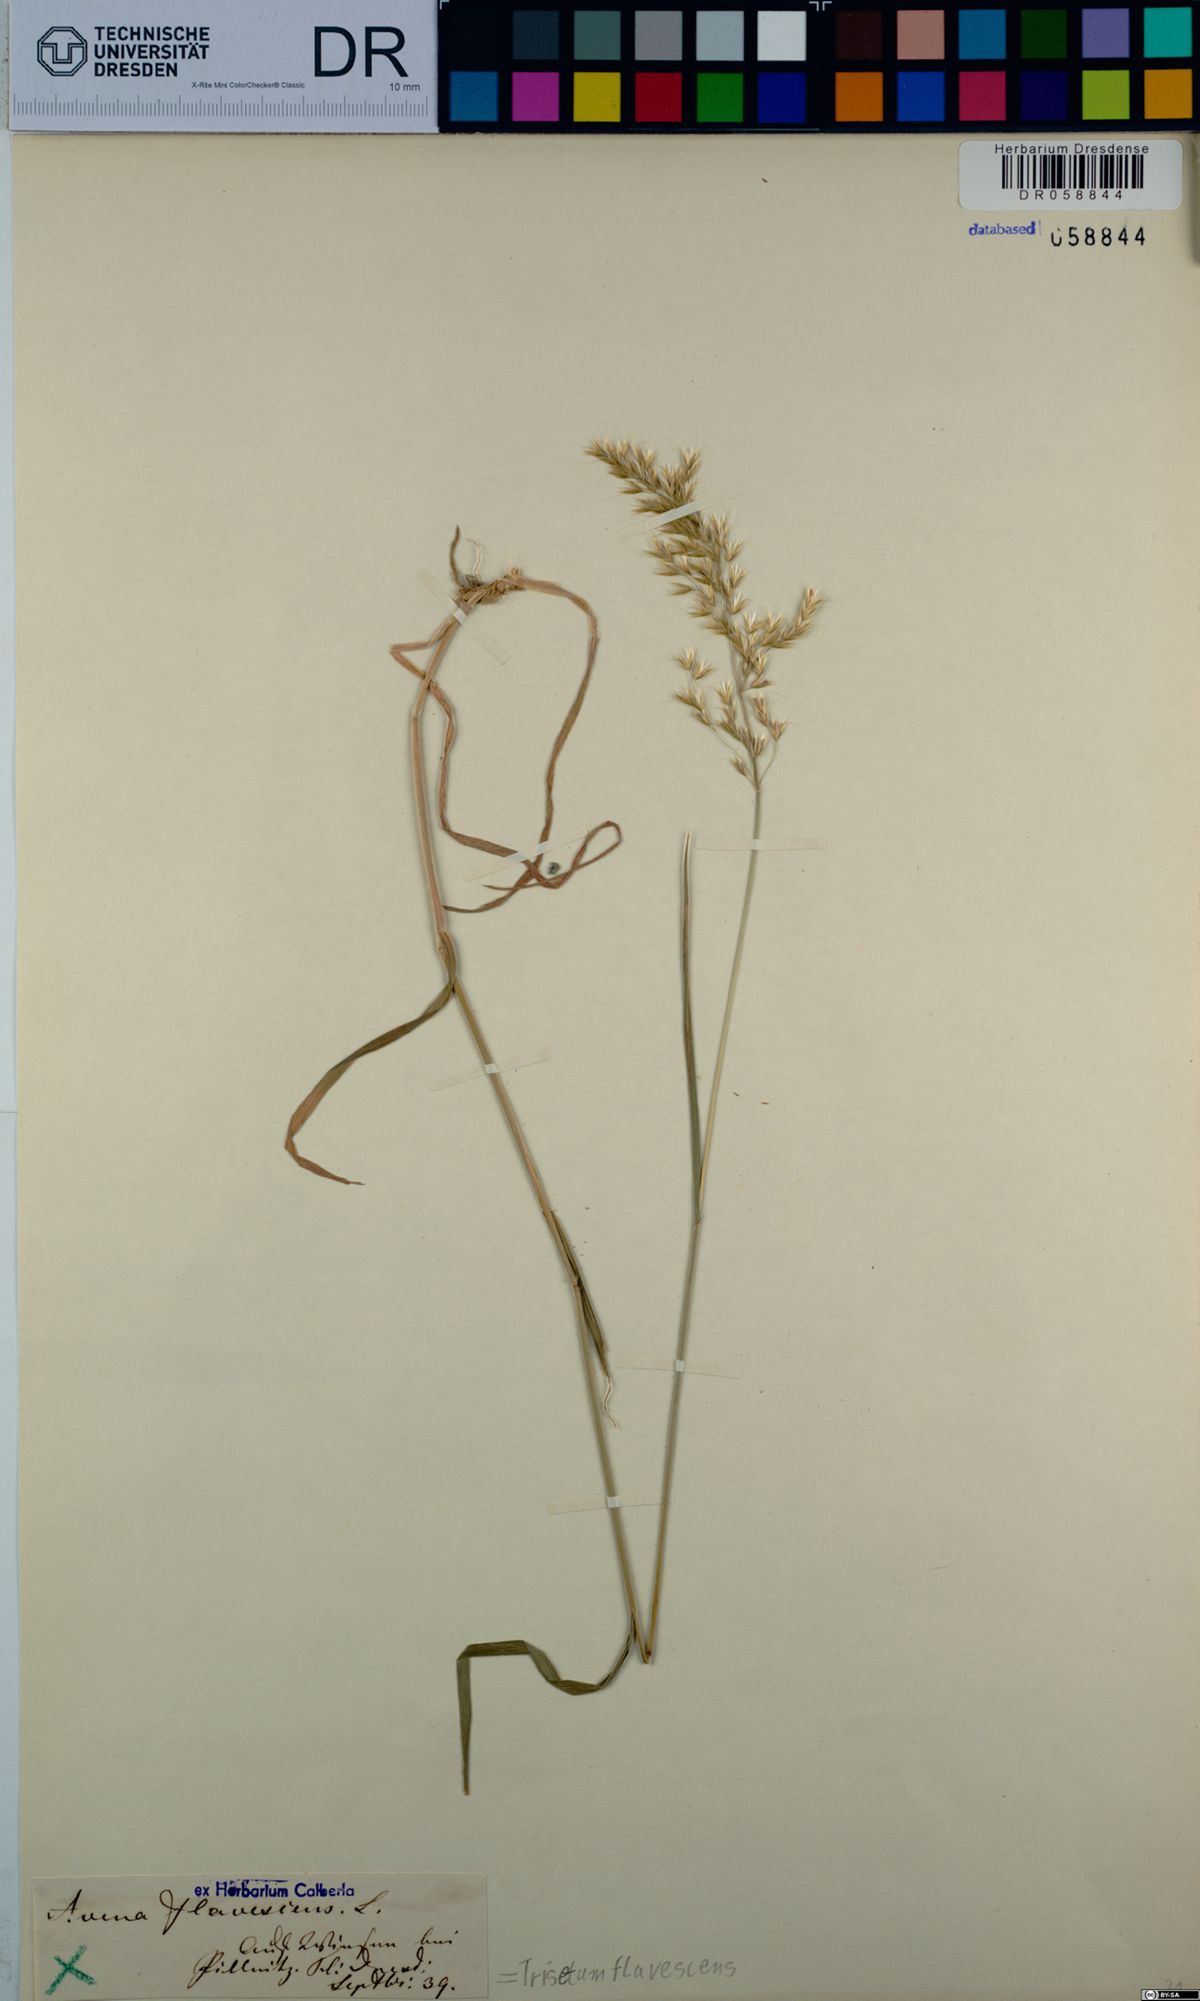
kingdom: Plantae
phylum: Tracheophyta
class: Liliopsida
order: Poales
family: Poaceae
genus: Trisetum
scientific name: Trisetum flavescens
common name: Yellow oat-grass
